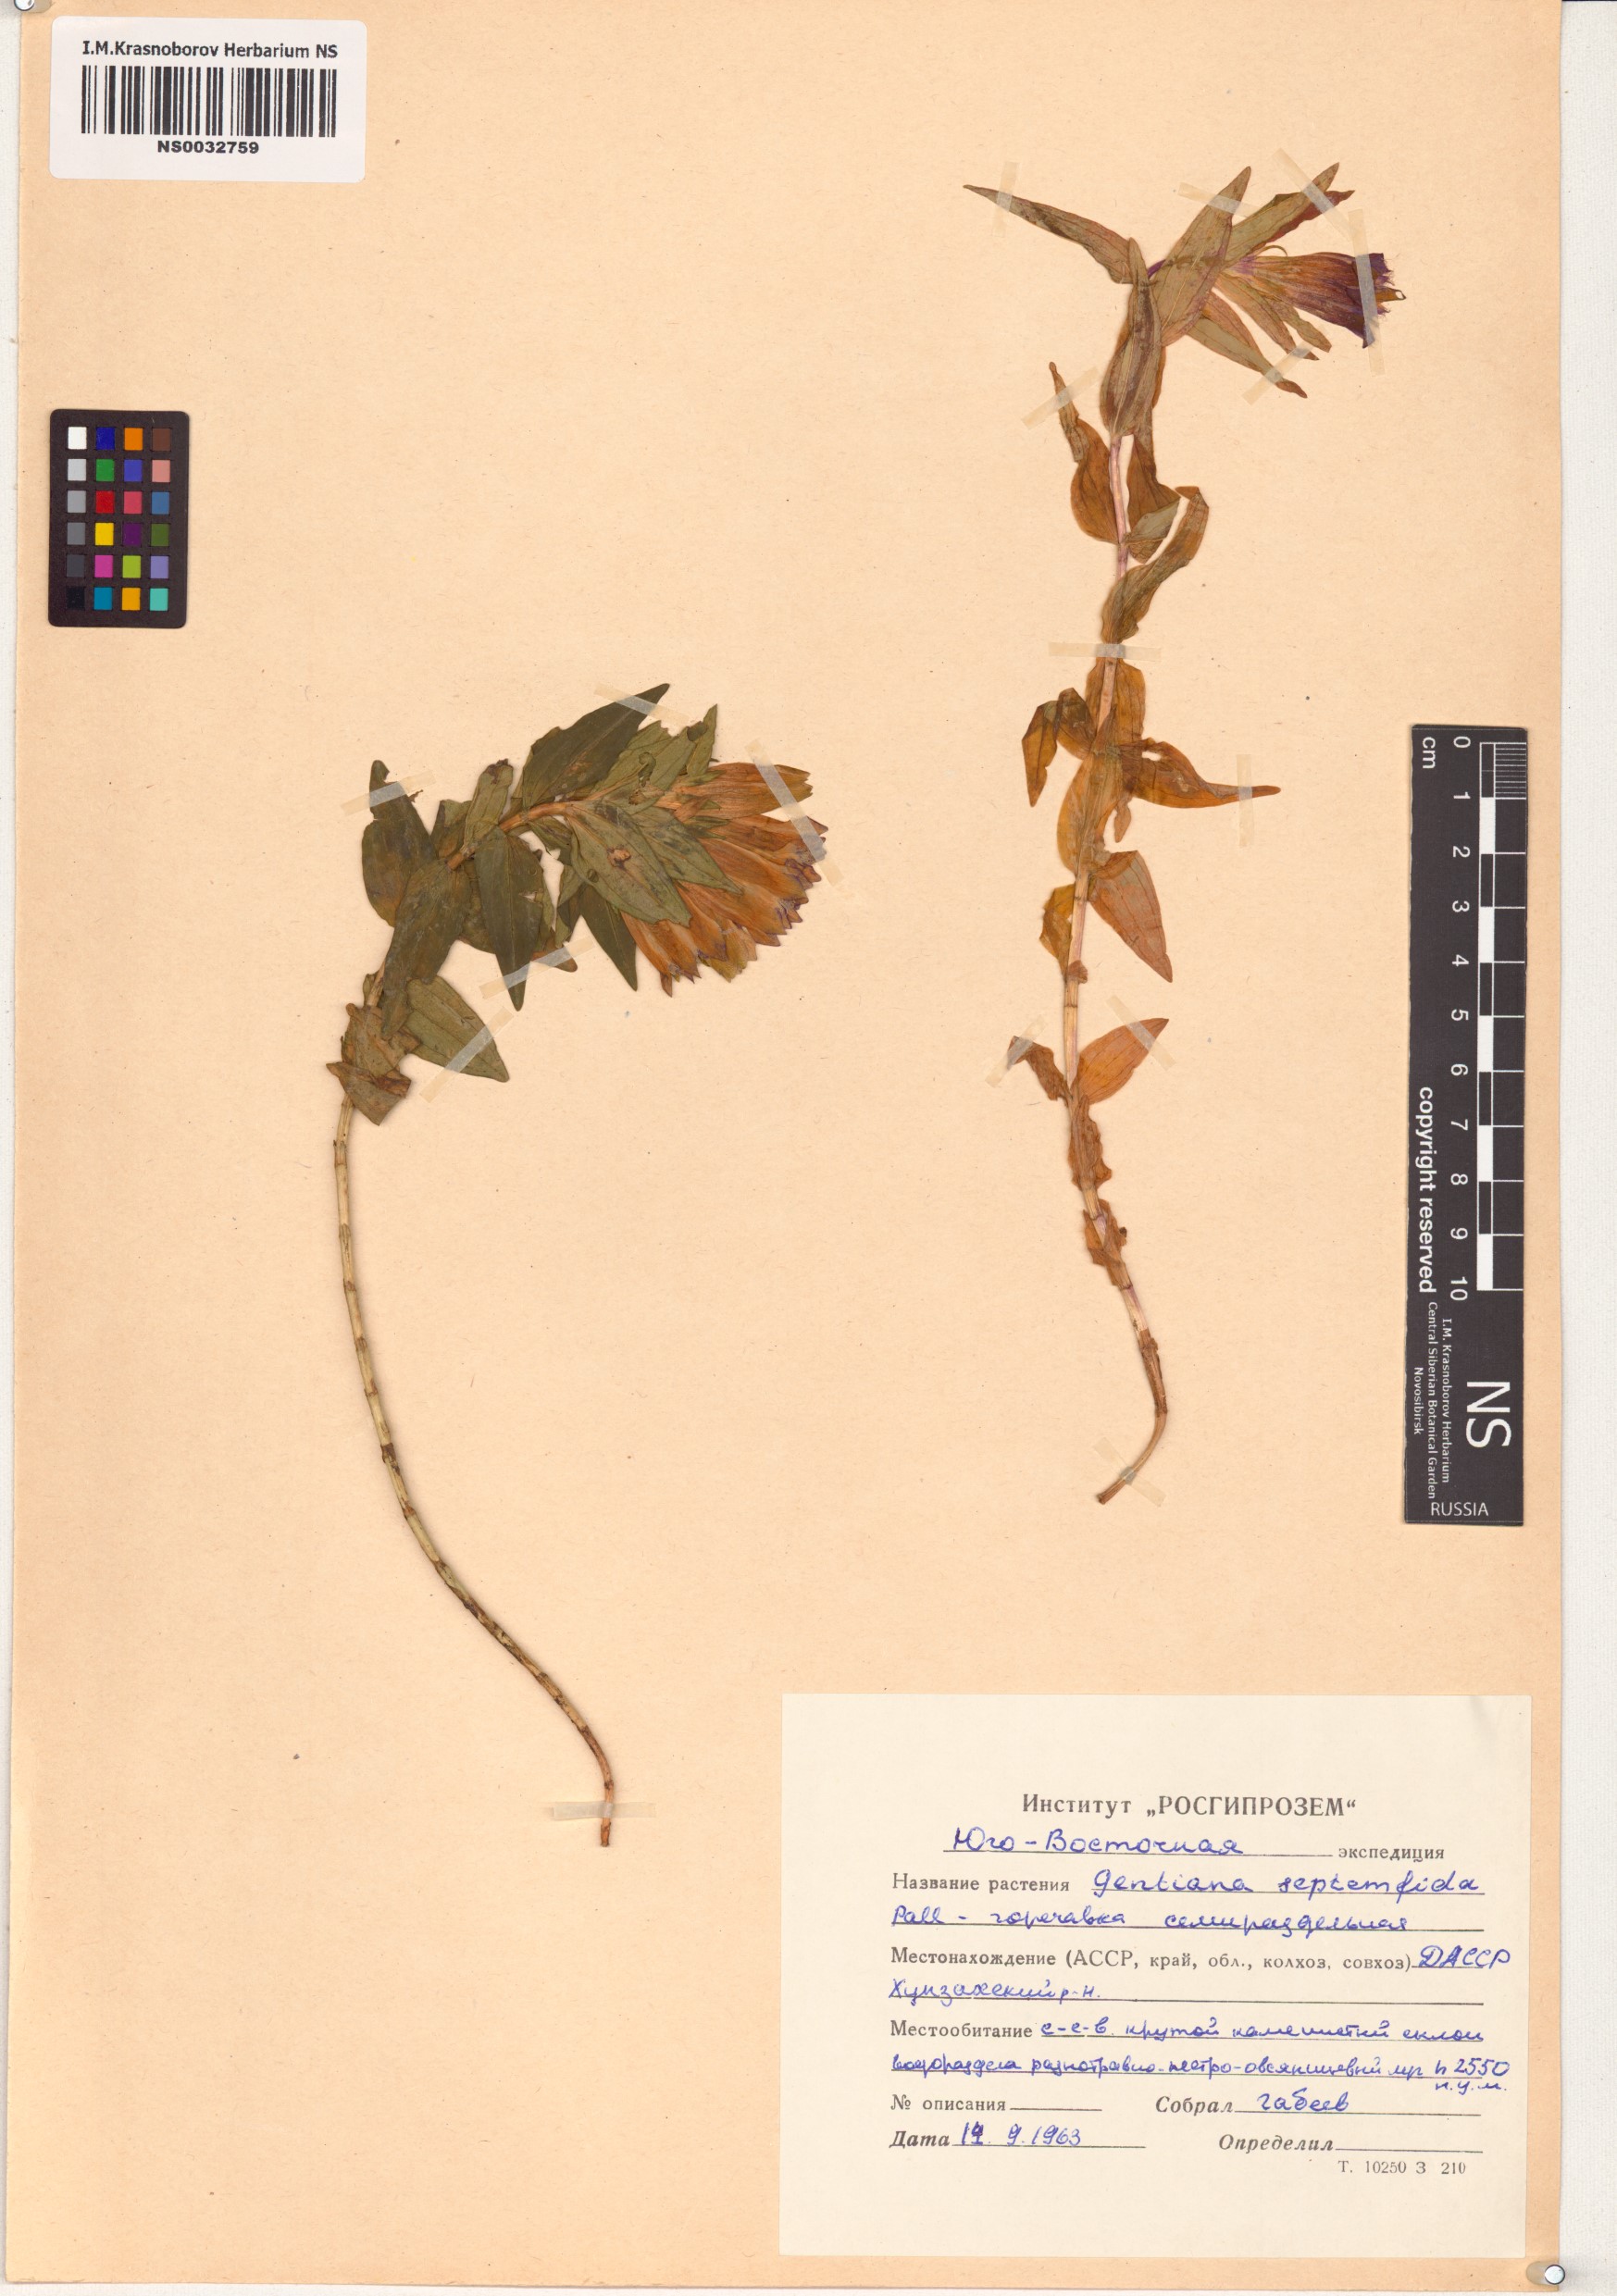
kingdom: Plantae
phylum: Tracheophyta
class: Magnoliopsida
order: Gentianales
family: Gentianaceae
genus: Gentiana
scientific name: Gentiana septemfida
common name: Crested gentian
